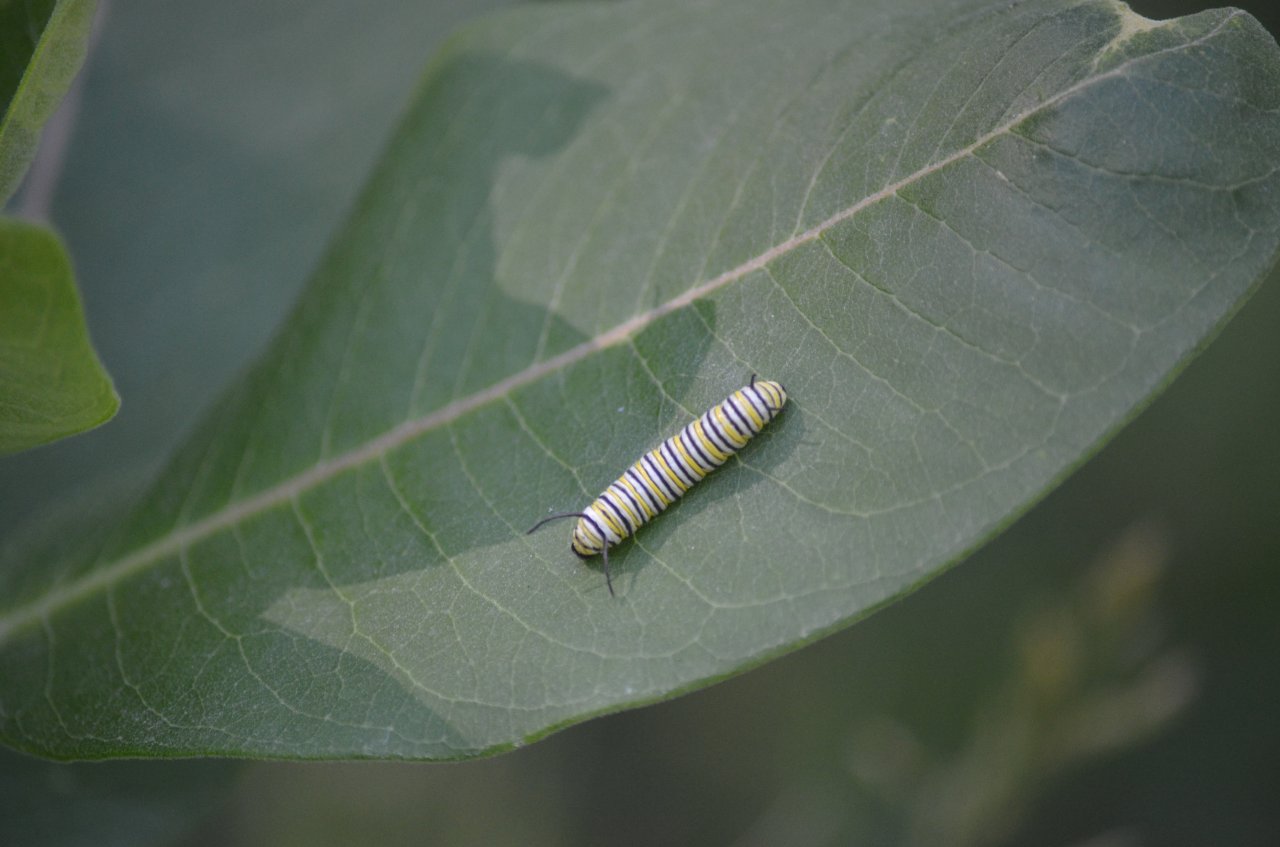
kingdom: Animalia
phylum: Arthropoda
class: Insecta
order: Lepidoptera
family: Nymphalidae
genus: Danaus
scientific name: Danaus plexippus
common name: Monarch
